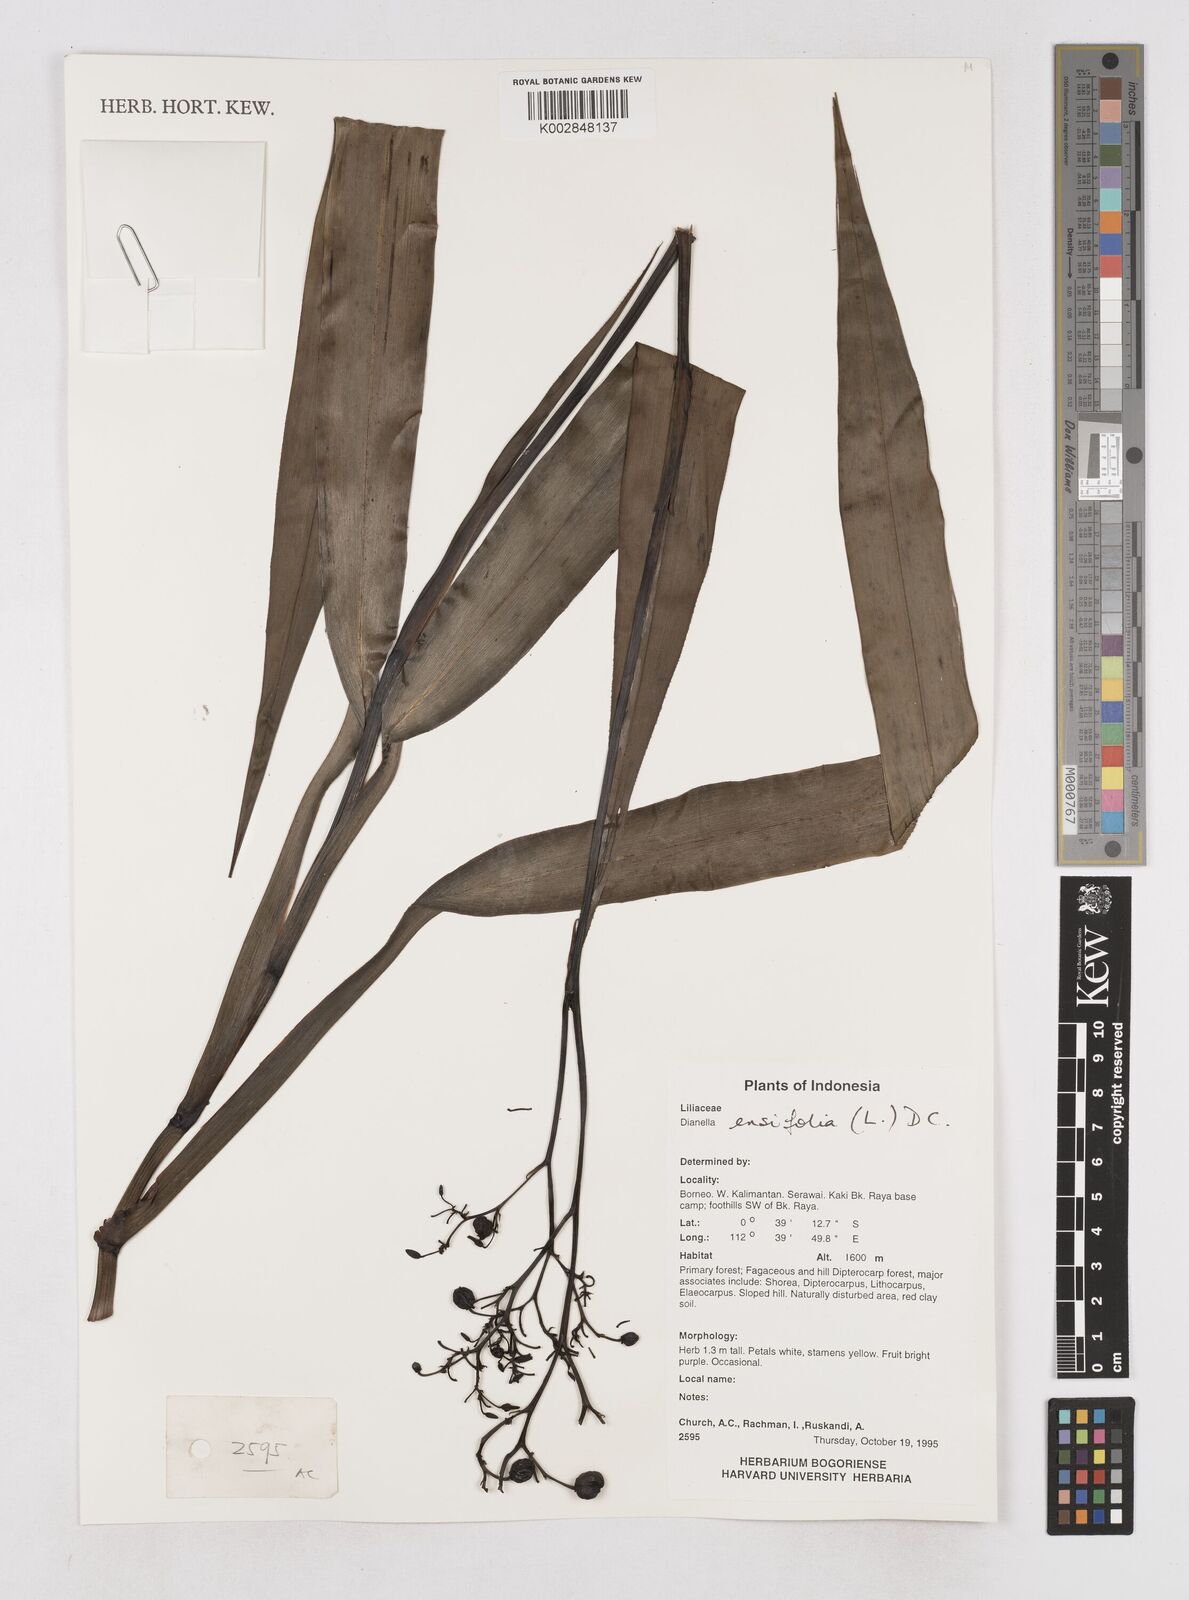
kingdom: Plantae
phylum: Tracheophyta
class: Liliopsida
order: Asparagales
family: Asphodelaceae
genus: Dianella
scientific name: Dianella ensifolia
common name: New zealand lilyplant
